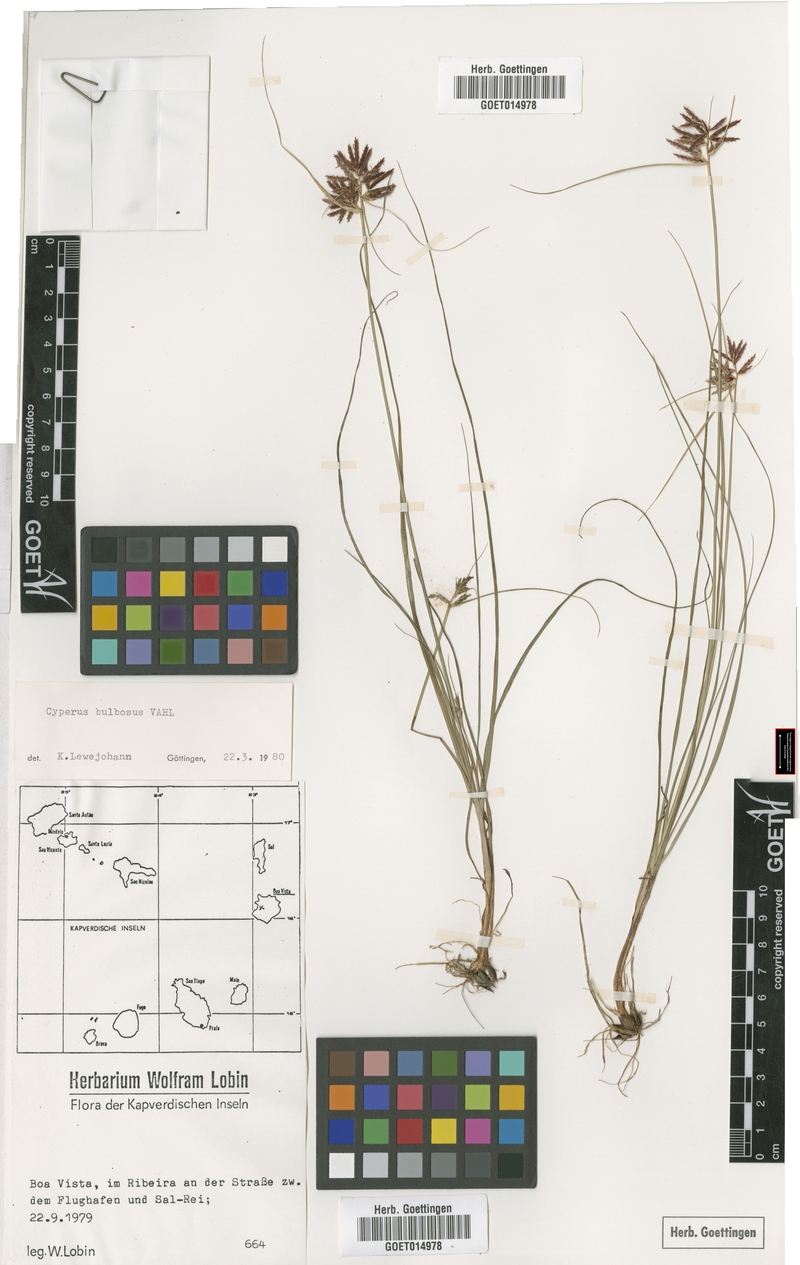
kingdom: Plantae
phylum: Tracheophyta
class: Liliopsida
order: Poales
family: Cyperaceae
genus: Cyperus
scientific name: Cyperus bulbosus
